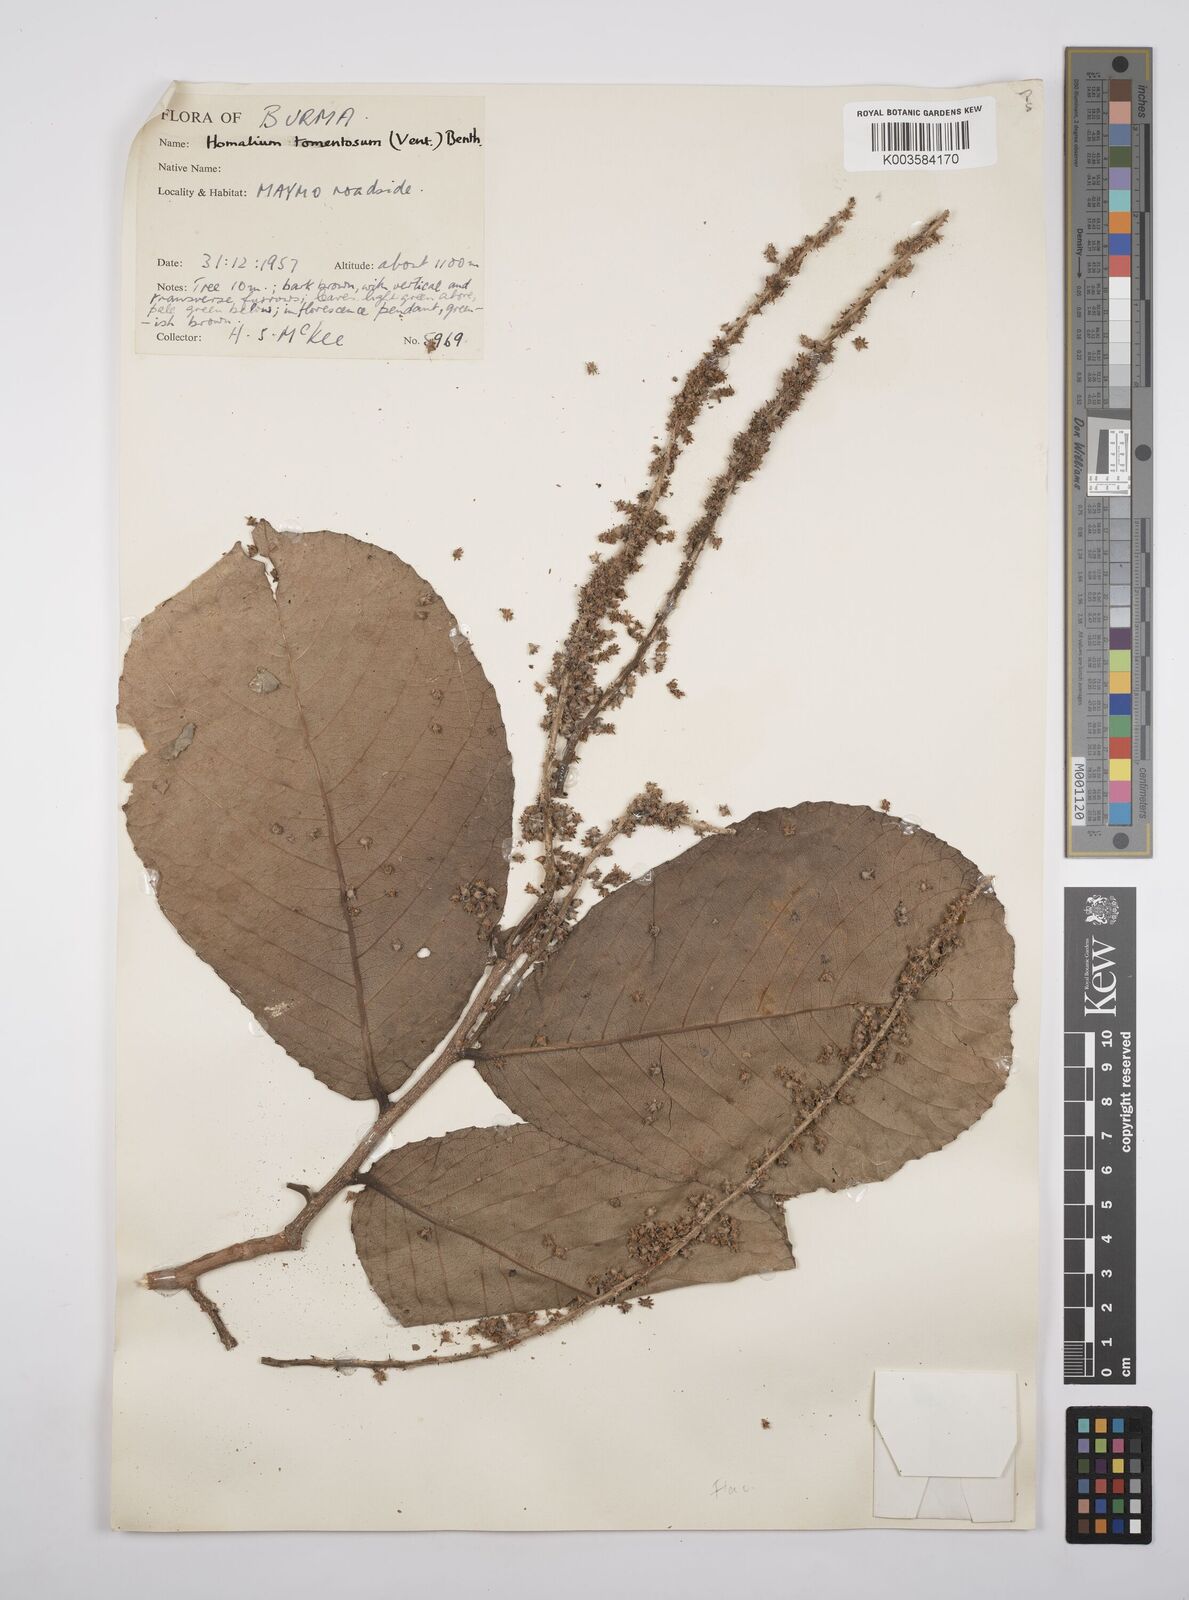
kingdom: Plantae
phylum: Tracheophyta
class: Magnoliopsida
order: Malpighiales
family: Salicaceae
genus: Homalium
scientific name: Homalium tomentosum
